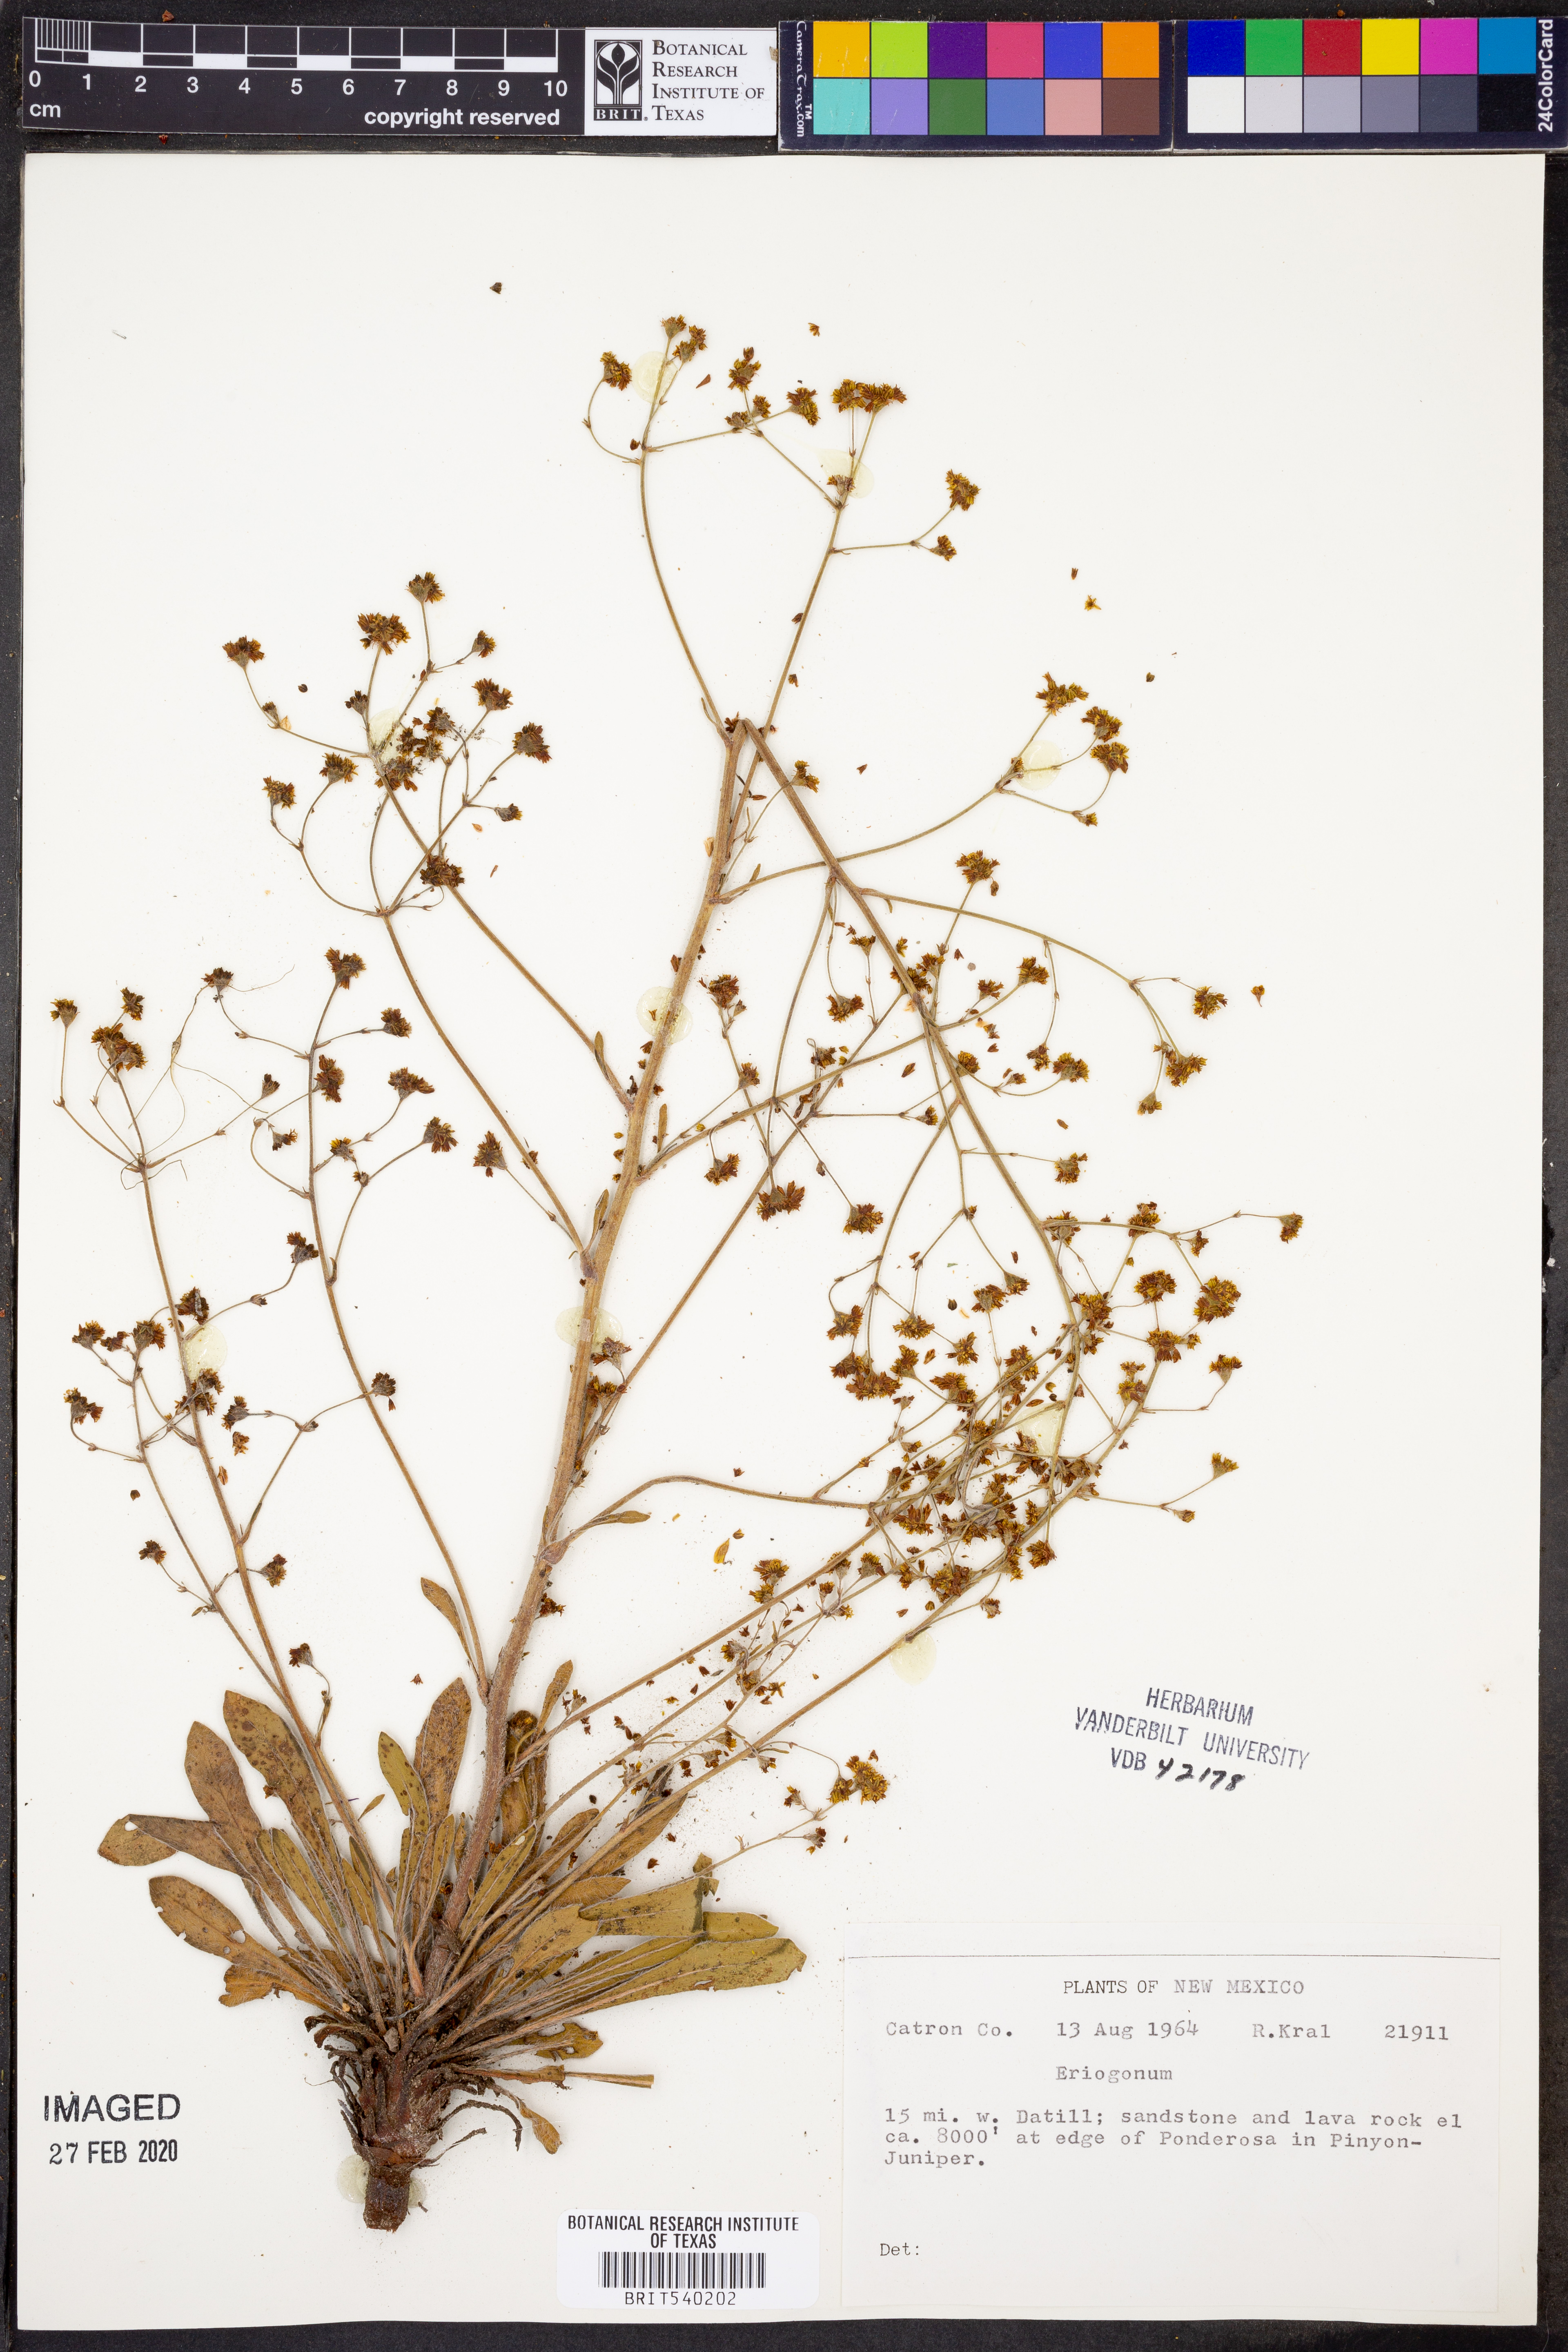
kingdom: Plantae
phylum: Tracheophyta
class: Magnoliopsida
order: Caryophyllales
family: Polygonaceae
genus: Eriogonum
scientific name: Eriogonum
